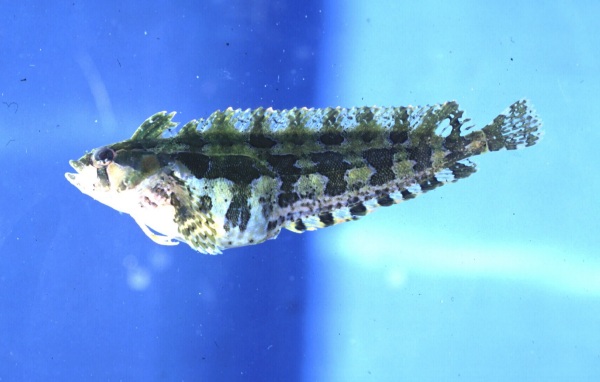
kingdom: Animalia
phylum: Chordata
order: Perciformes
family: Clinidae
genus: Pavoclinus
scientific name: Pavoclinus laurentii
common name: Rippled klipfish
